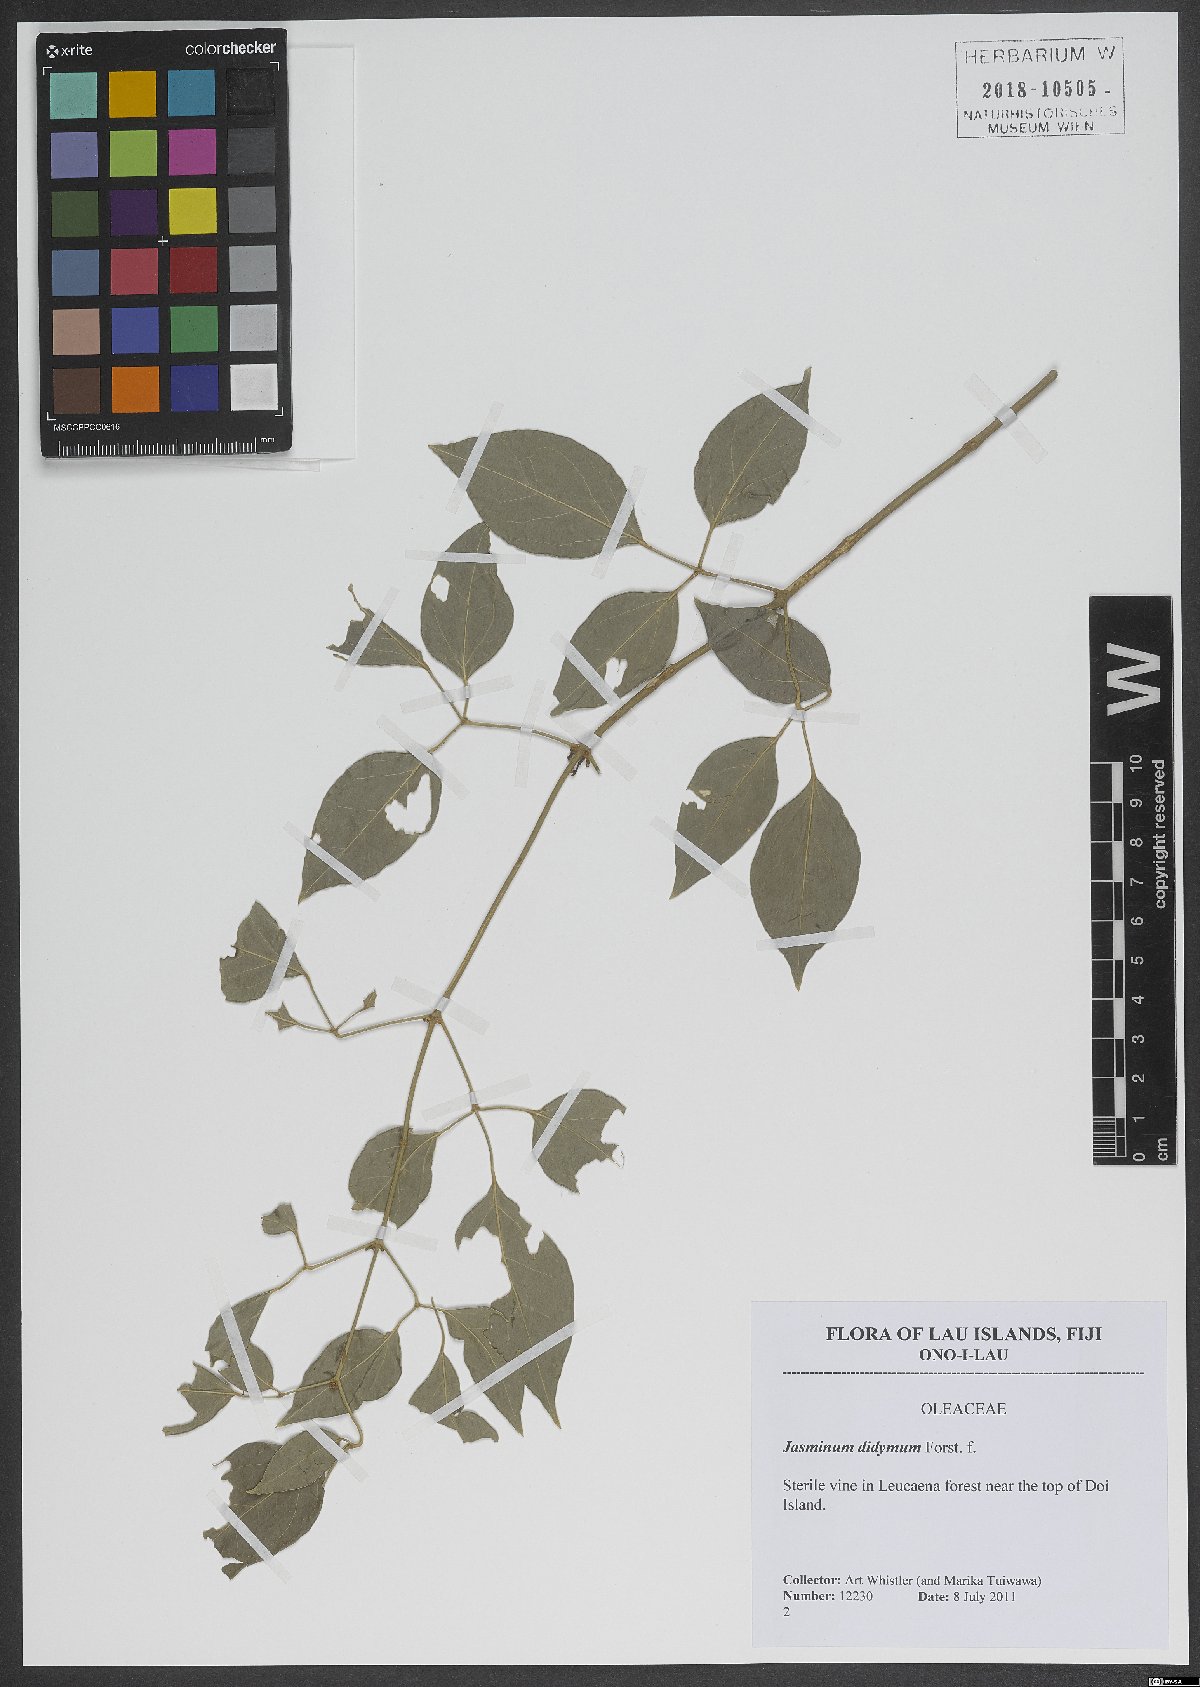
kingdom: Plantae
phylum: Tracheophyta
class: Magnoliopsida
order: Lamiales
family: Oleaceae
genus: Jasminum
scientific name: Jasminum didymum
